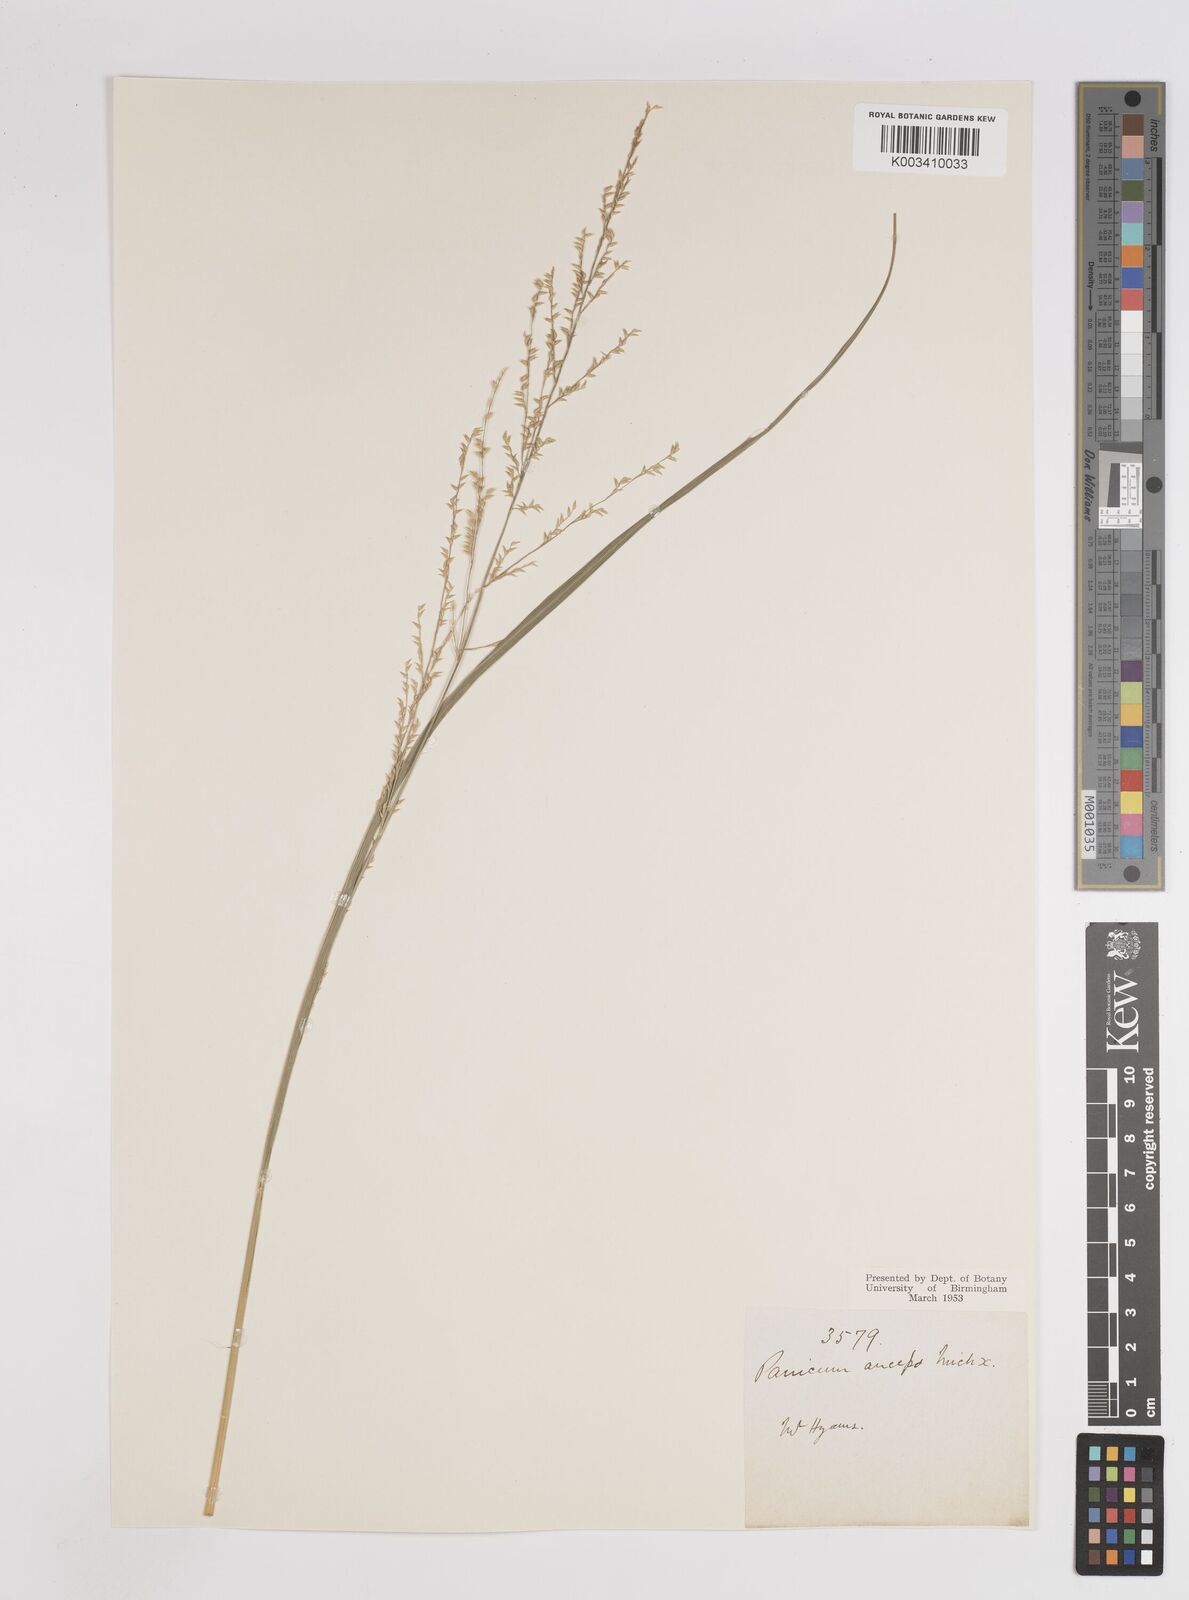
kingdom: Plantae
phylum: Tracheophyta
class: Liliopsida
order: Poales
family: Poaceae
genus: Coleataenia
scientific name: Coleataenia anceps
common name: Beaked panic grass
